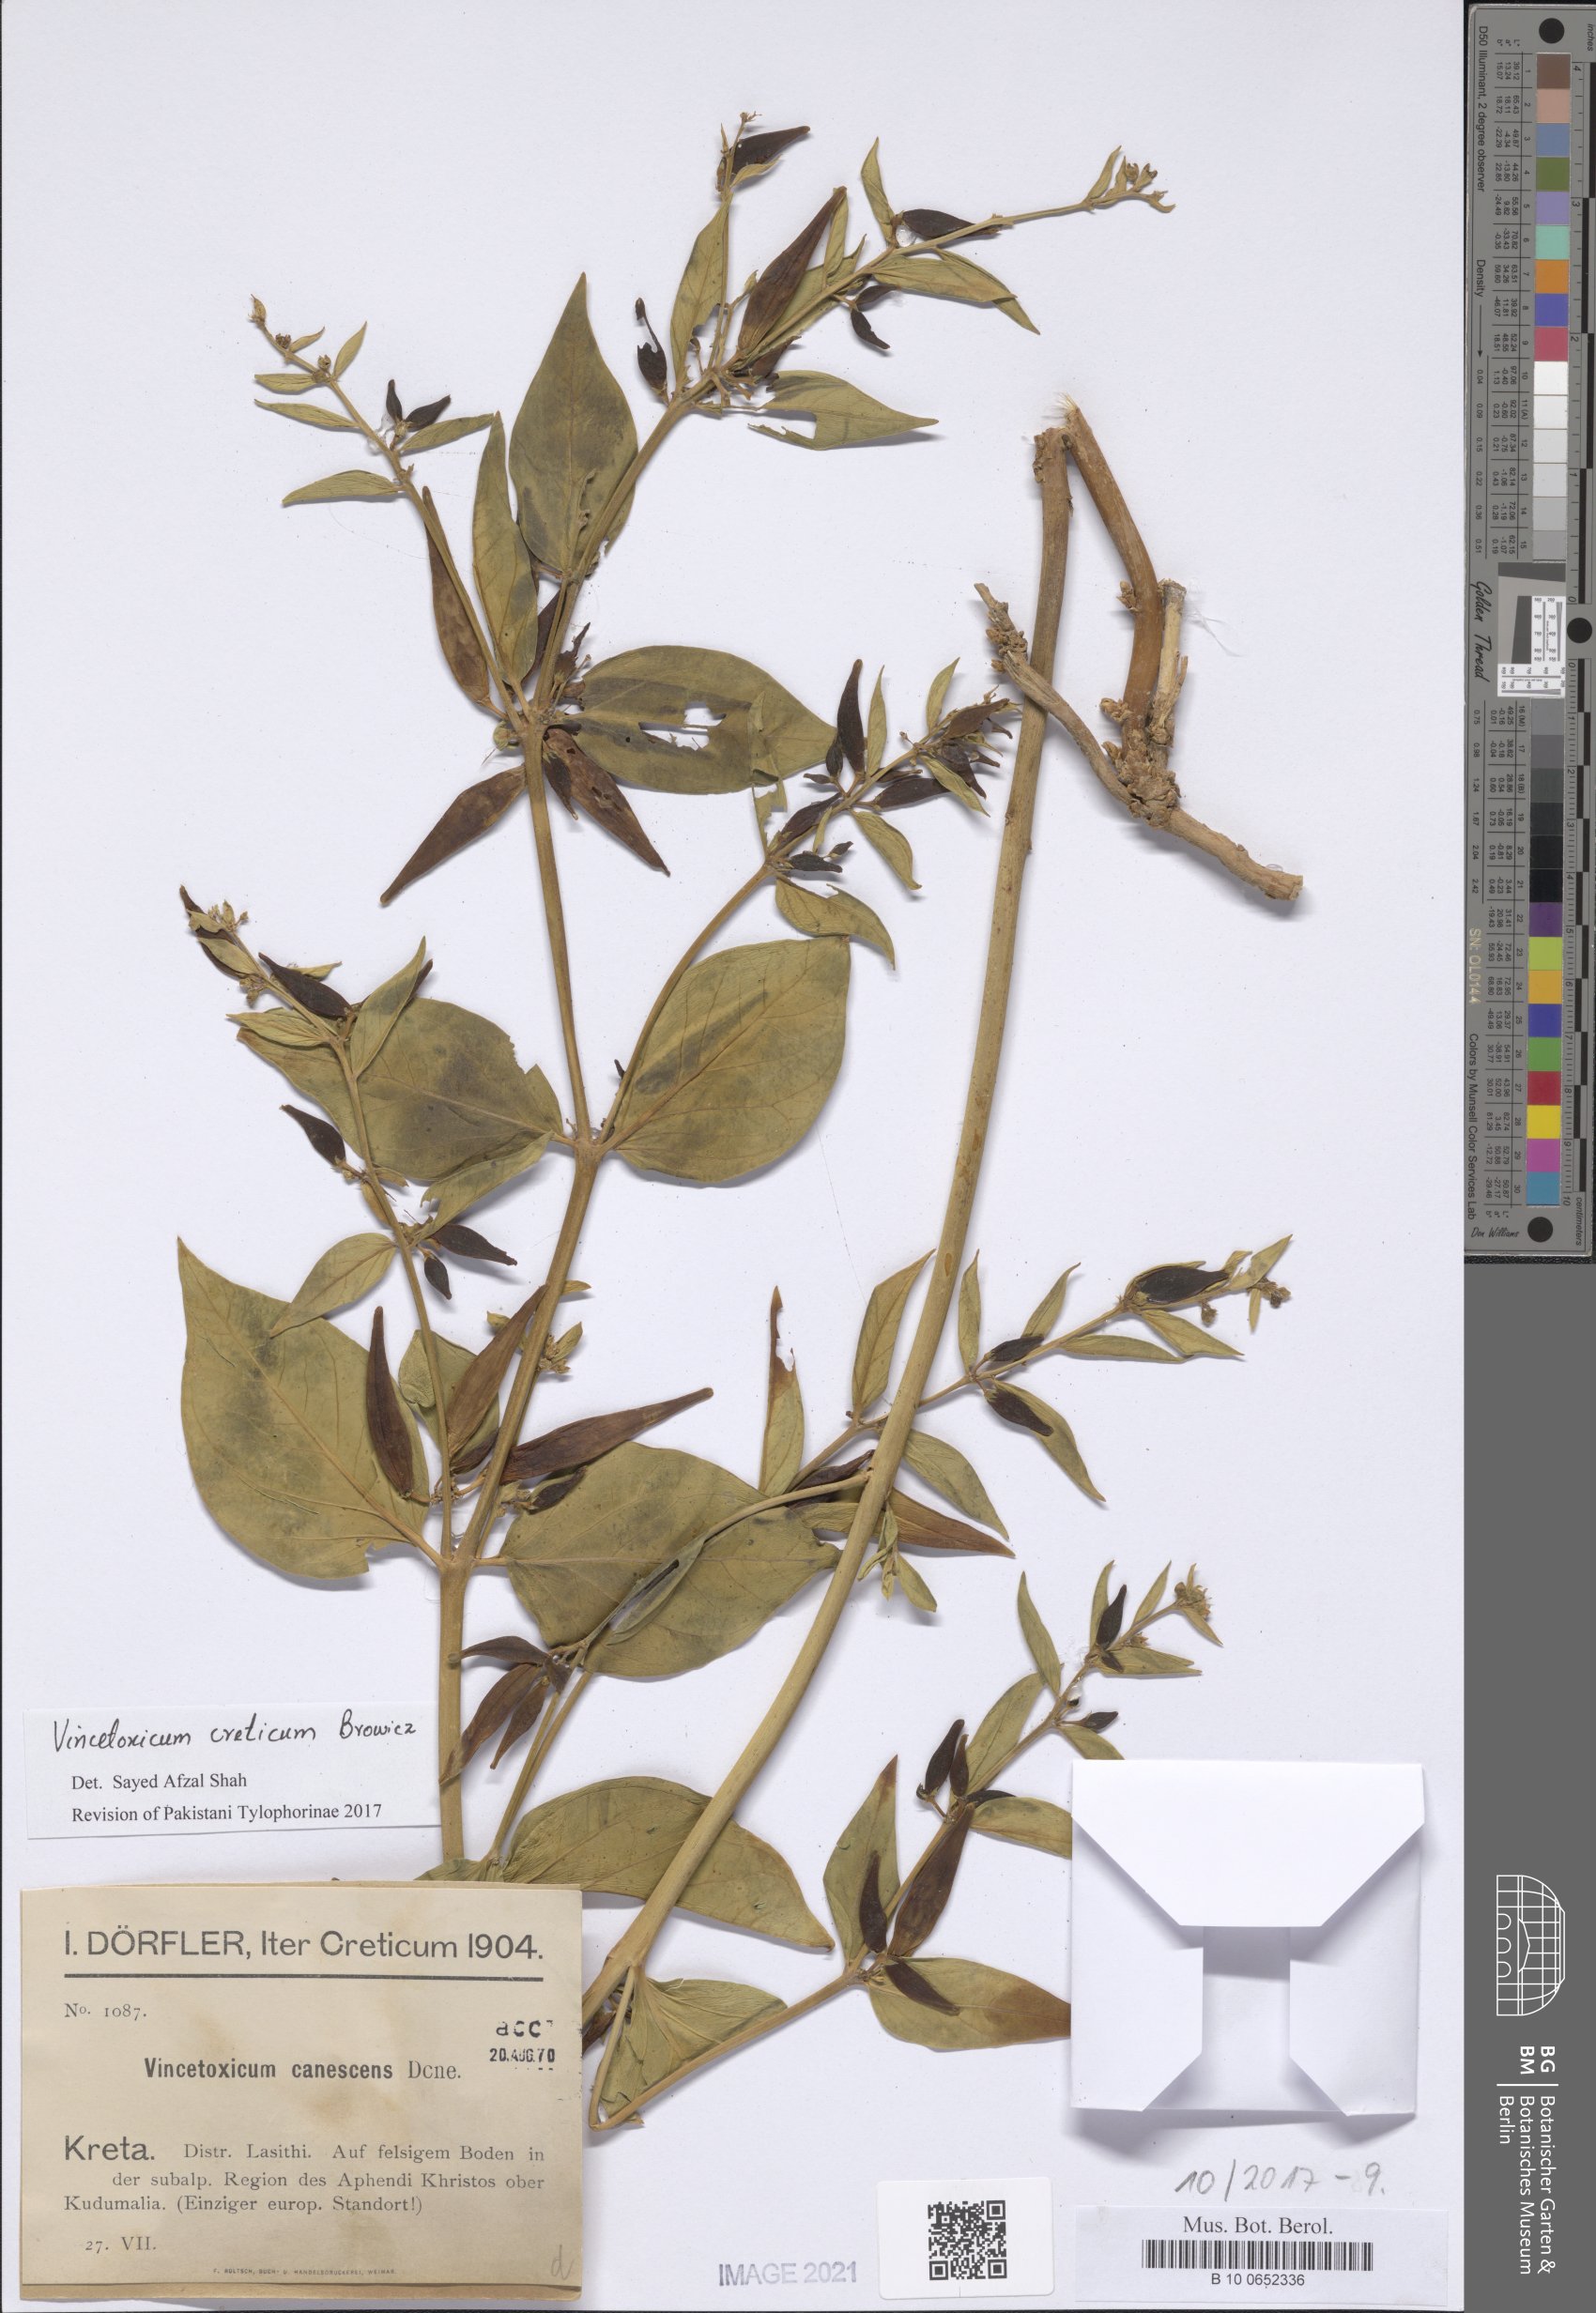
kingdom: Plantae
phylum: Tracheophyta
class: Magnoliopsida
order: Gentianales
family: Apocynaceae
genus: Vincetoxicum
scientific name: Vincetoxicum canescens
